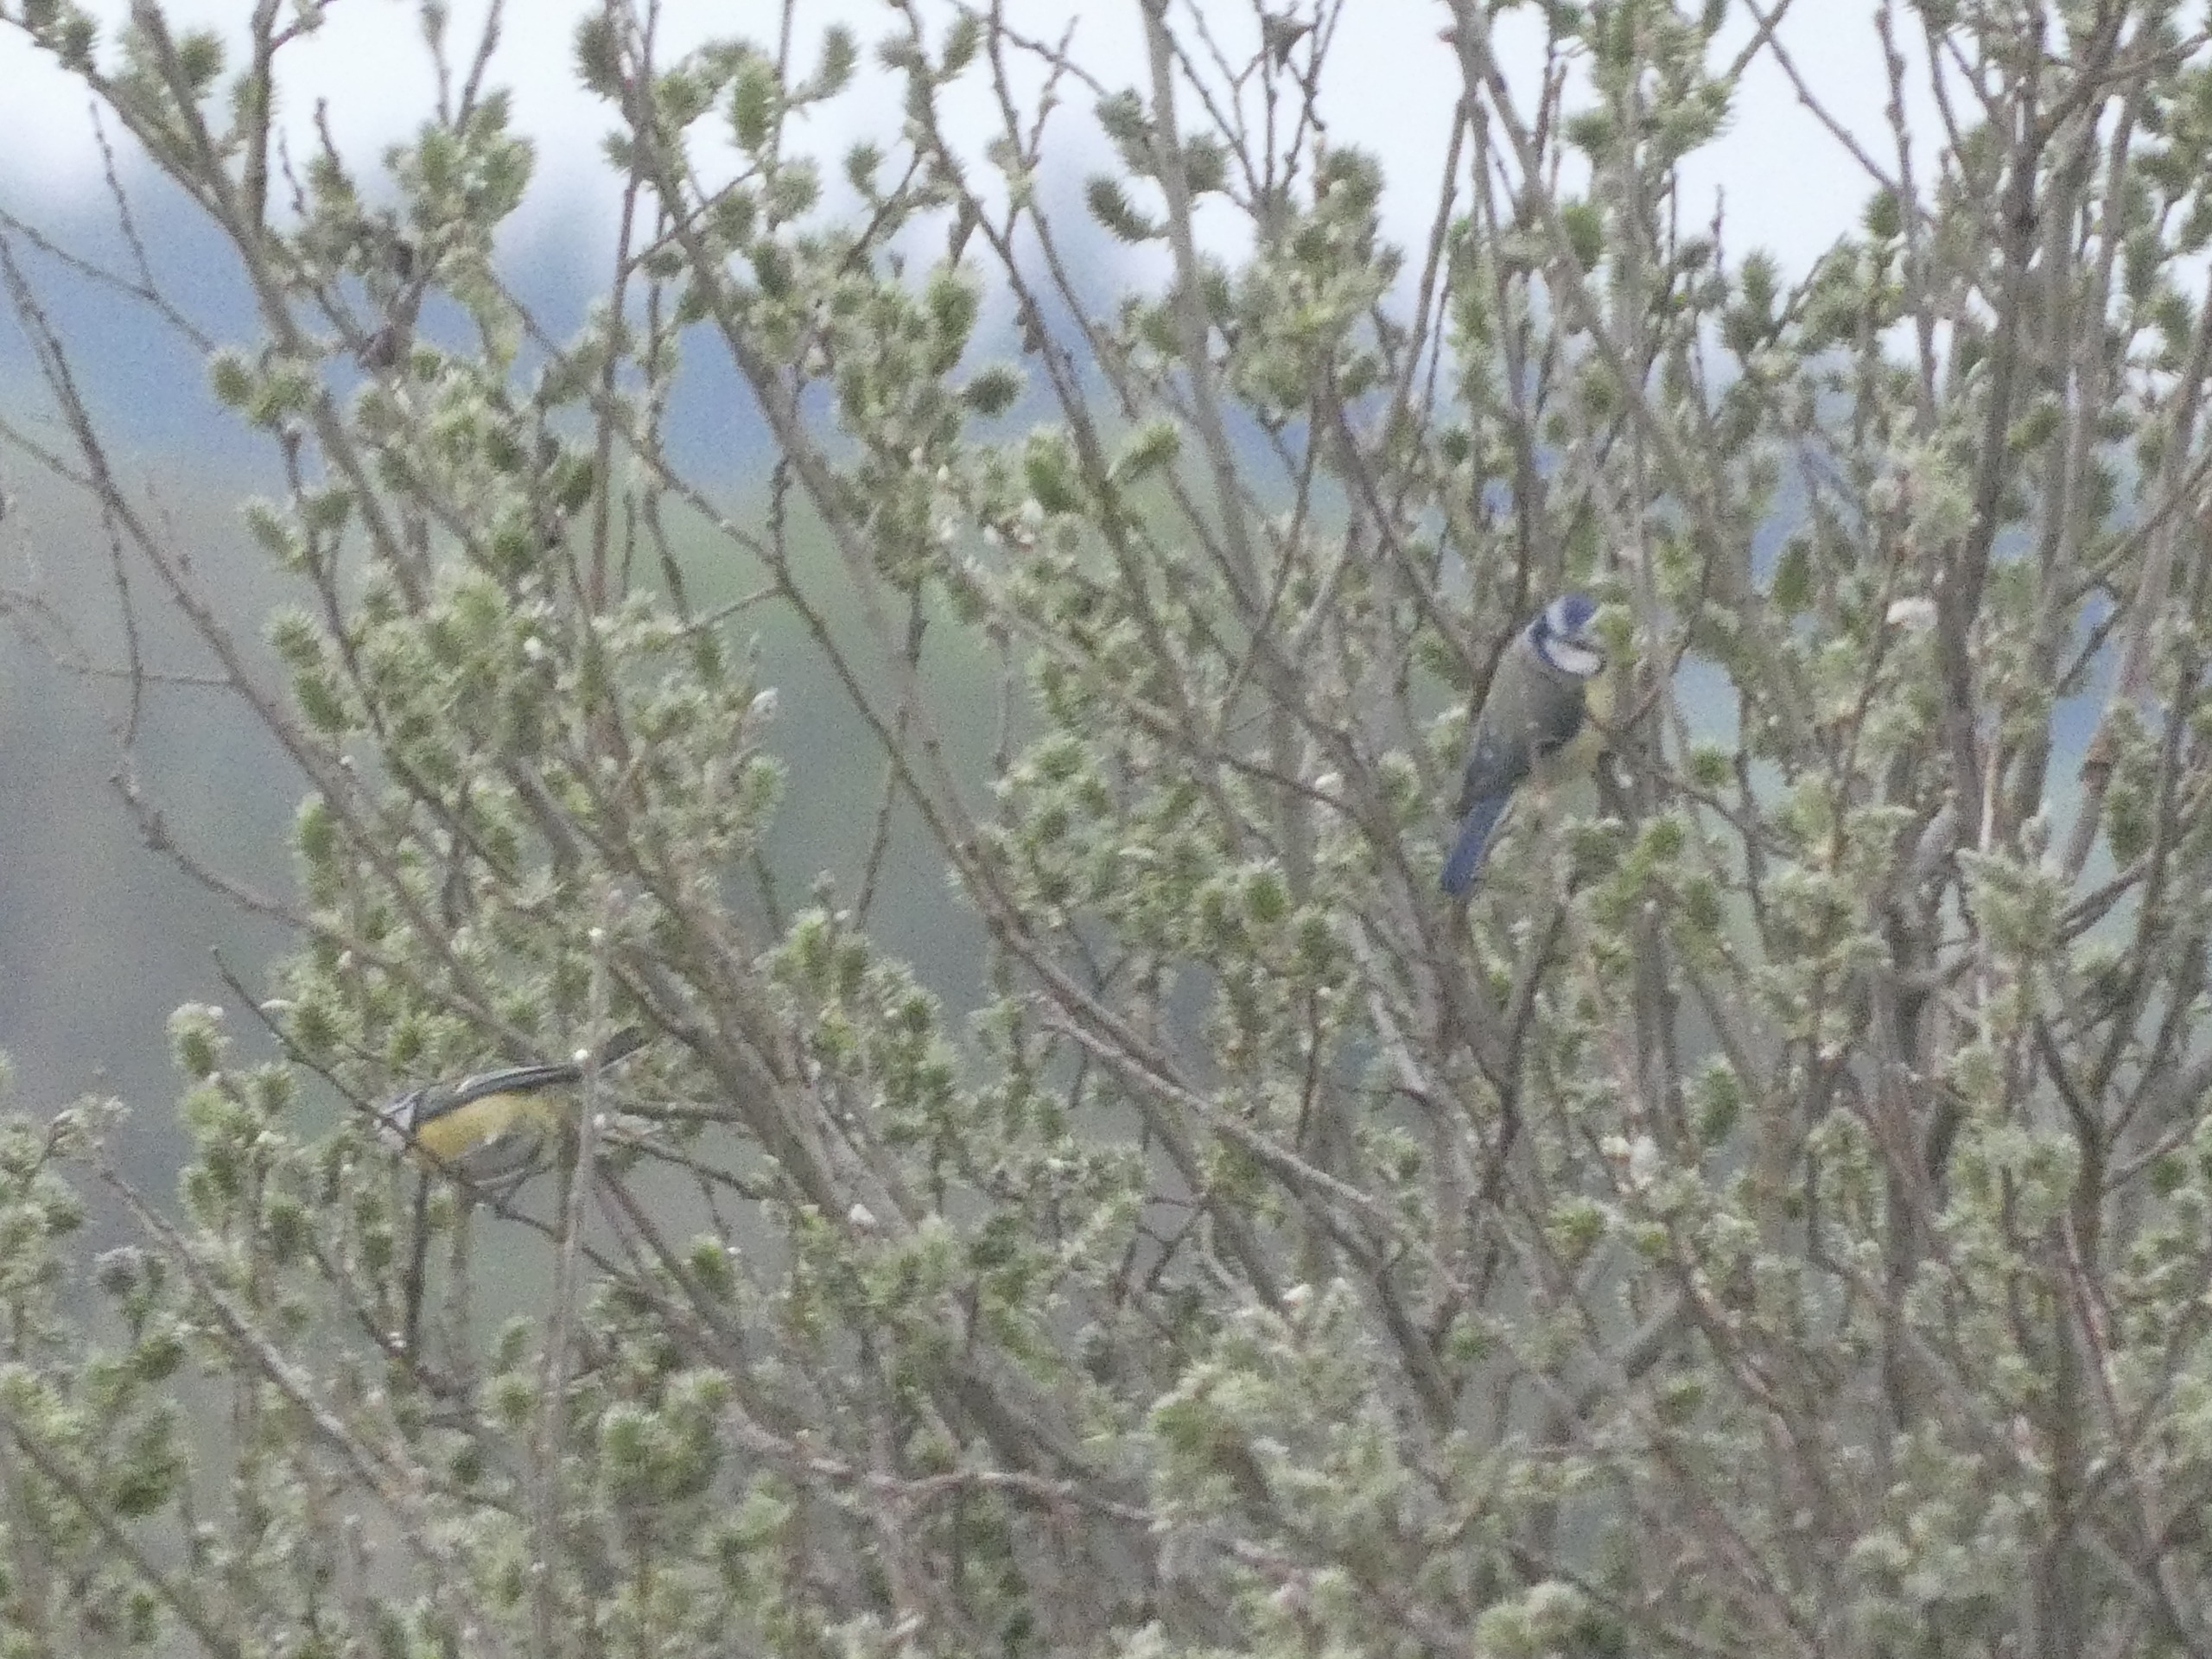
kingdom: Animalia
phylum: Chordata
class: Aves
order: Passeriformes
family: Paridae
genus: Cyanistes
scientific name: Cyanistes caeruleus
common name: Blåmejse
